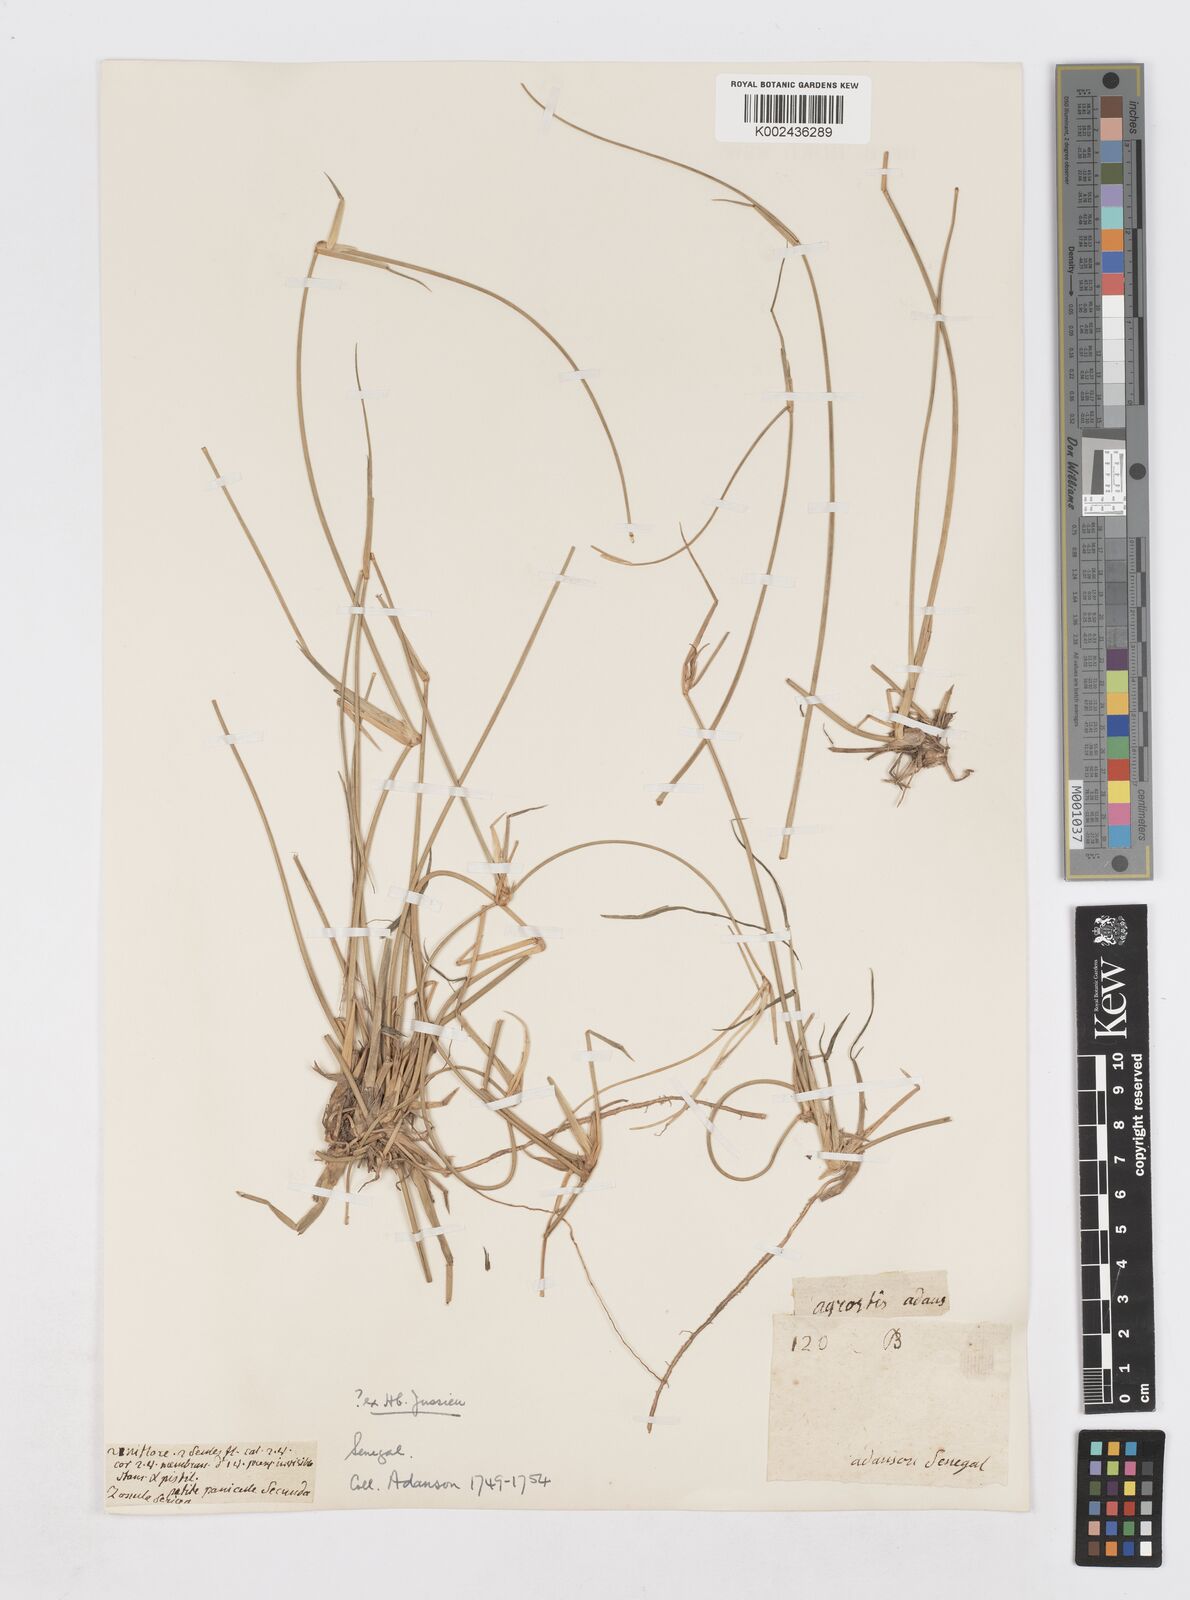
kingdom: Plantae
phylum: Tracheophyta
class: Liliopsida
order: Poales
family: Poaceae
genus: Sporobolus
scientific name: Sporobolus robustus
